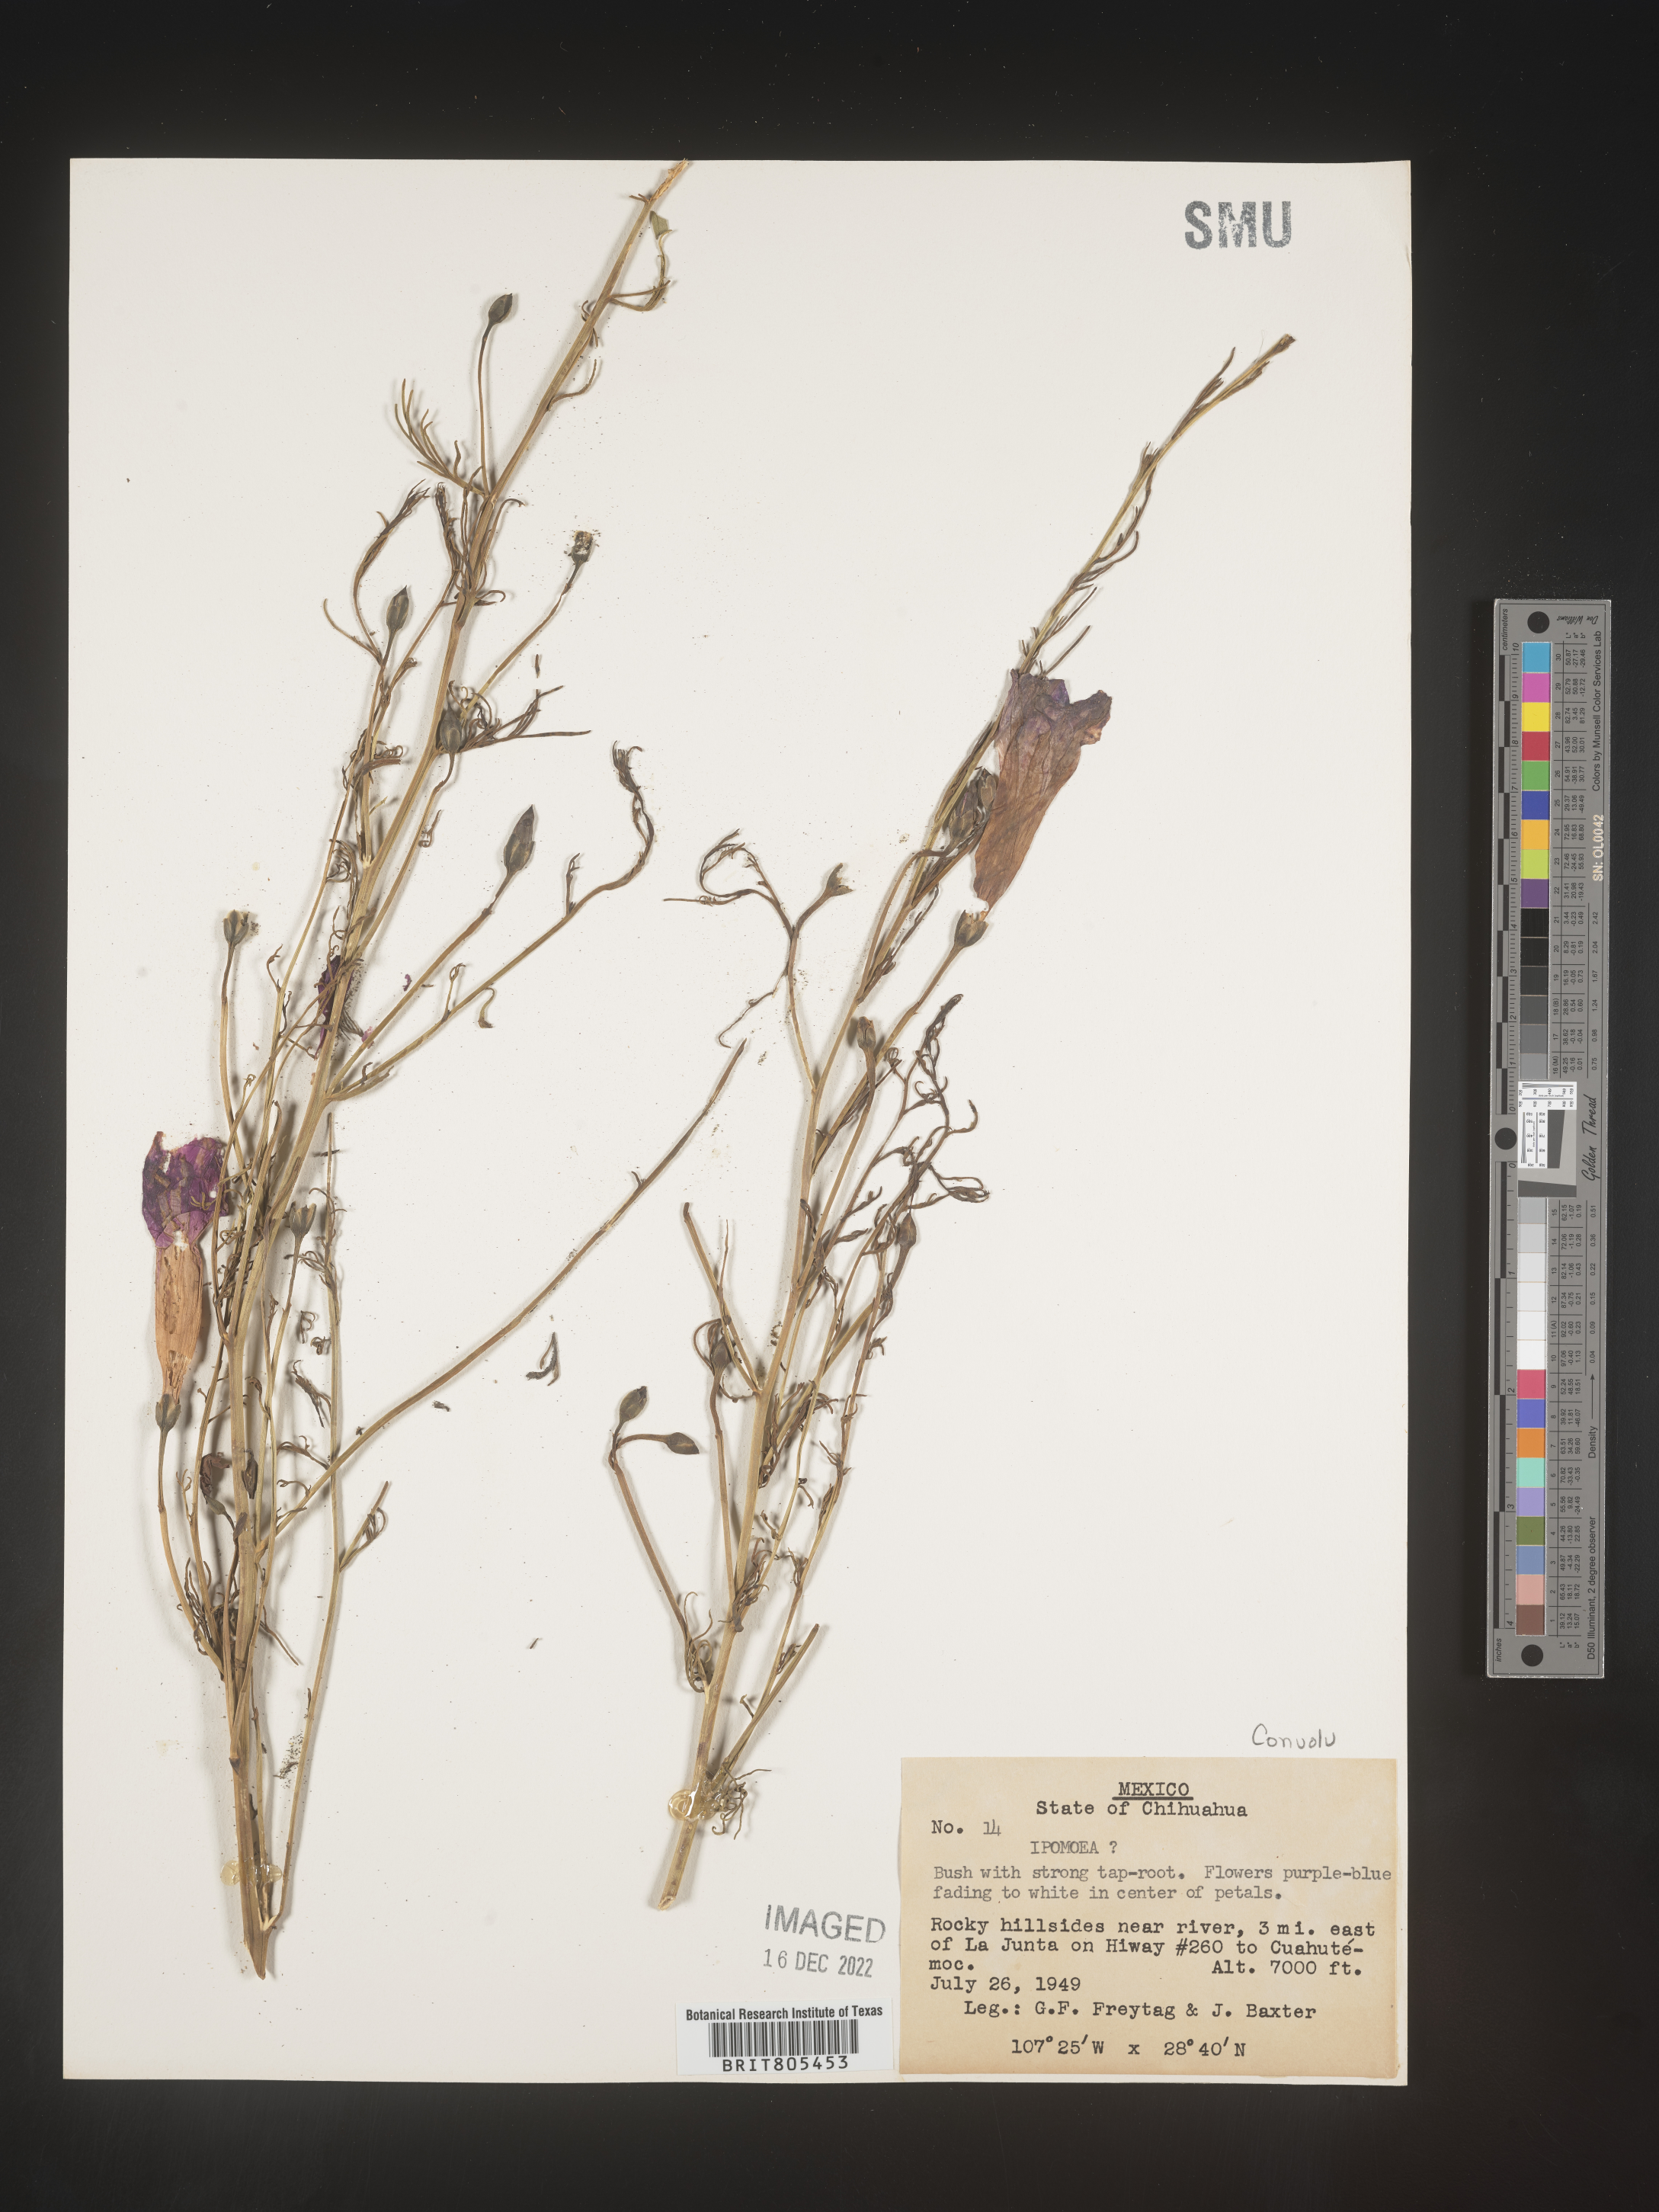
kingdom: Plantae
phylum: Tracheophyta
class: Magnoliopsida
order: Solanales
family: Convolvulaceae
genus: Ipomoea
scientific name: Ipomoea
